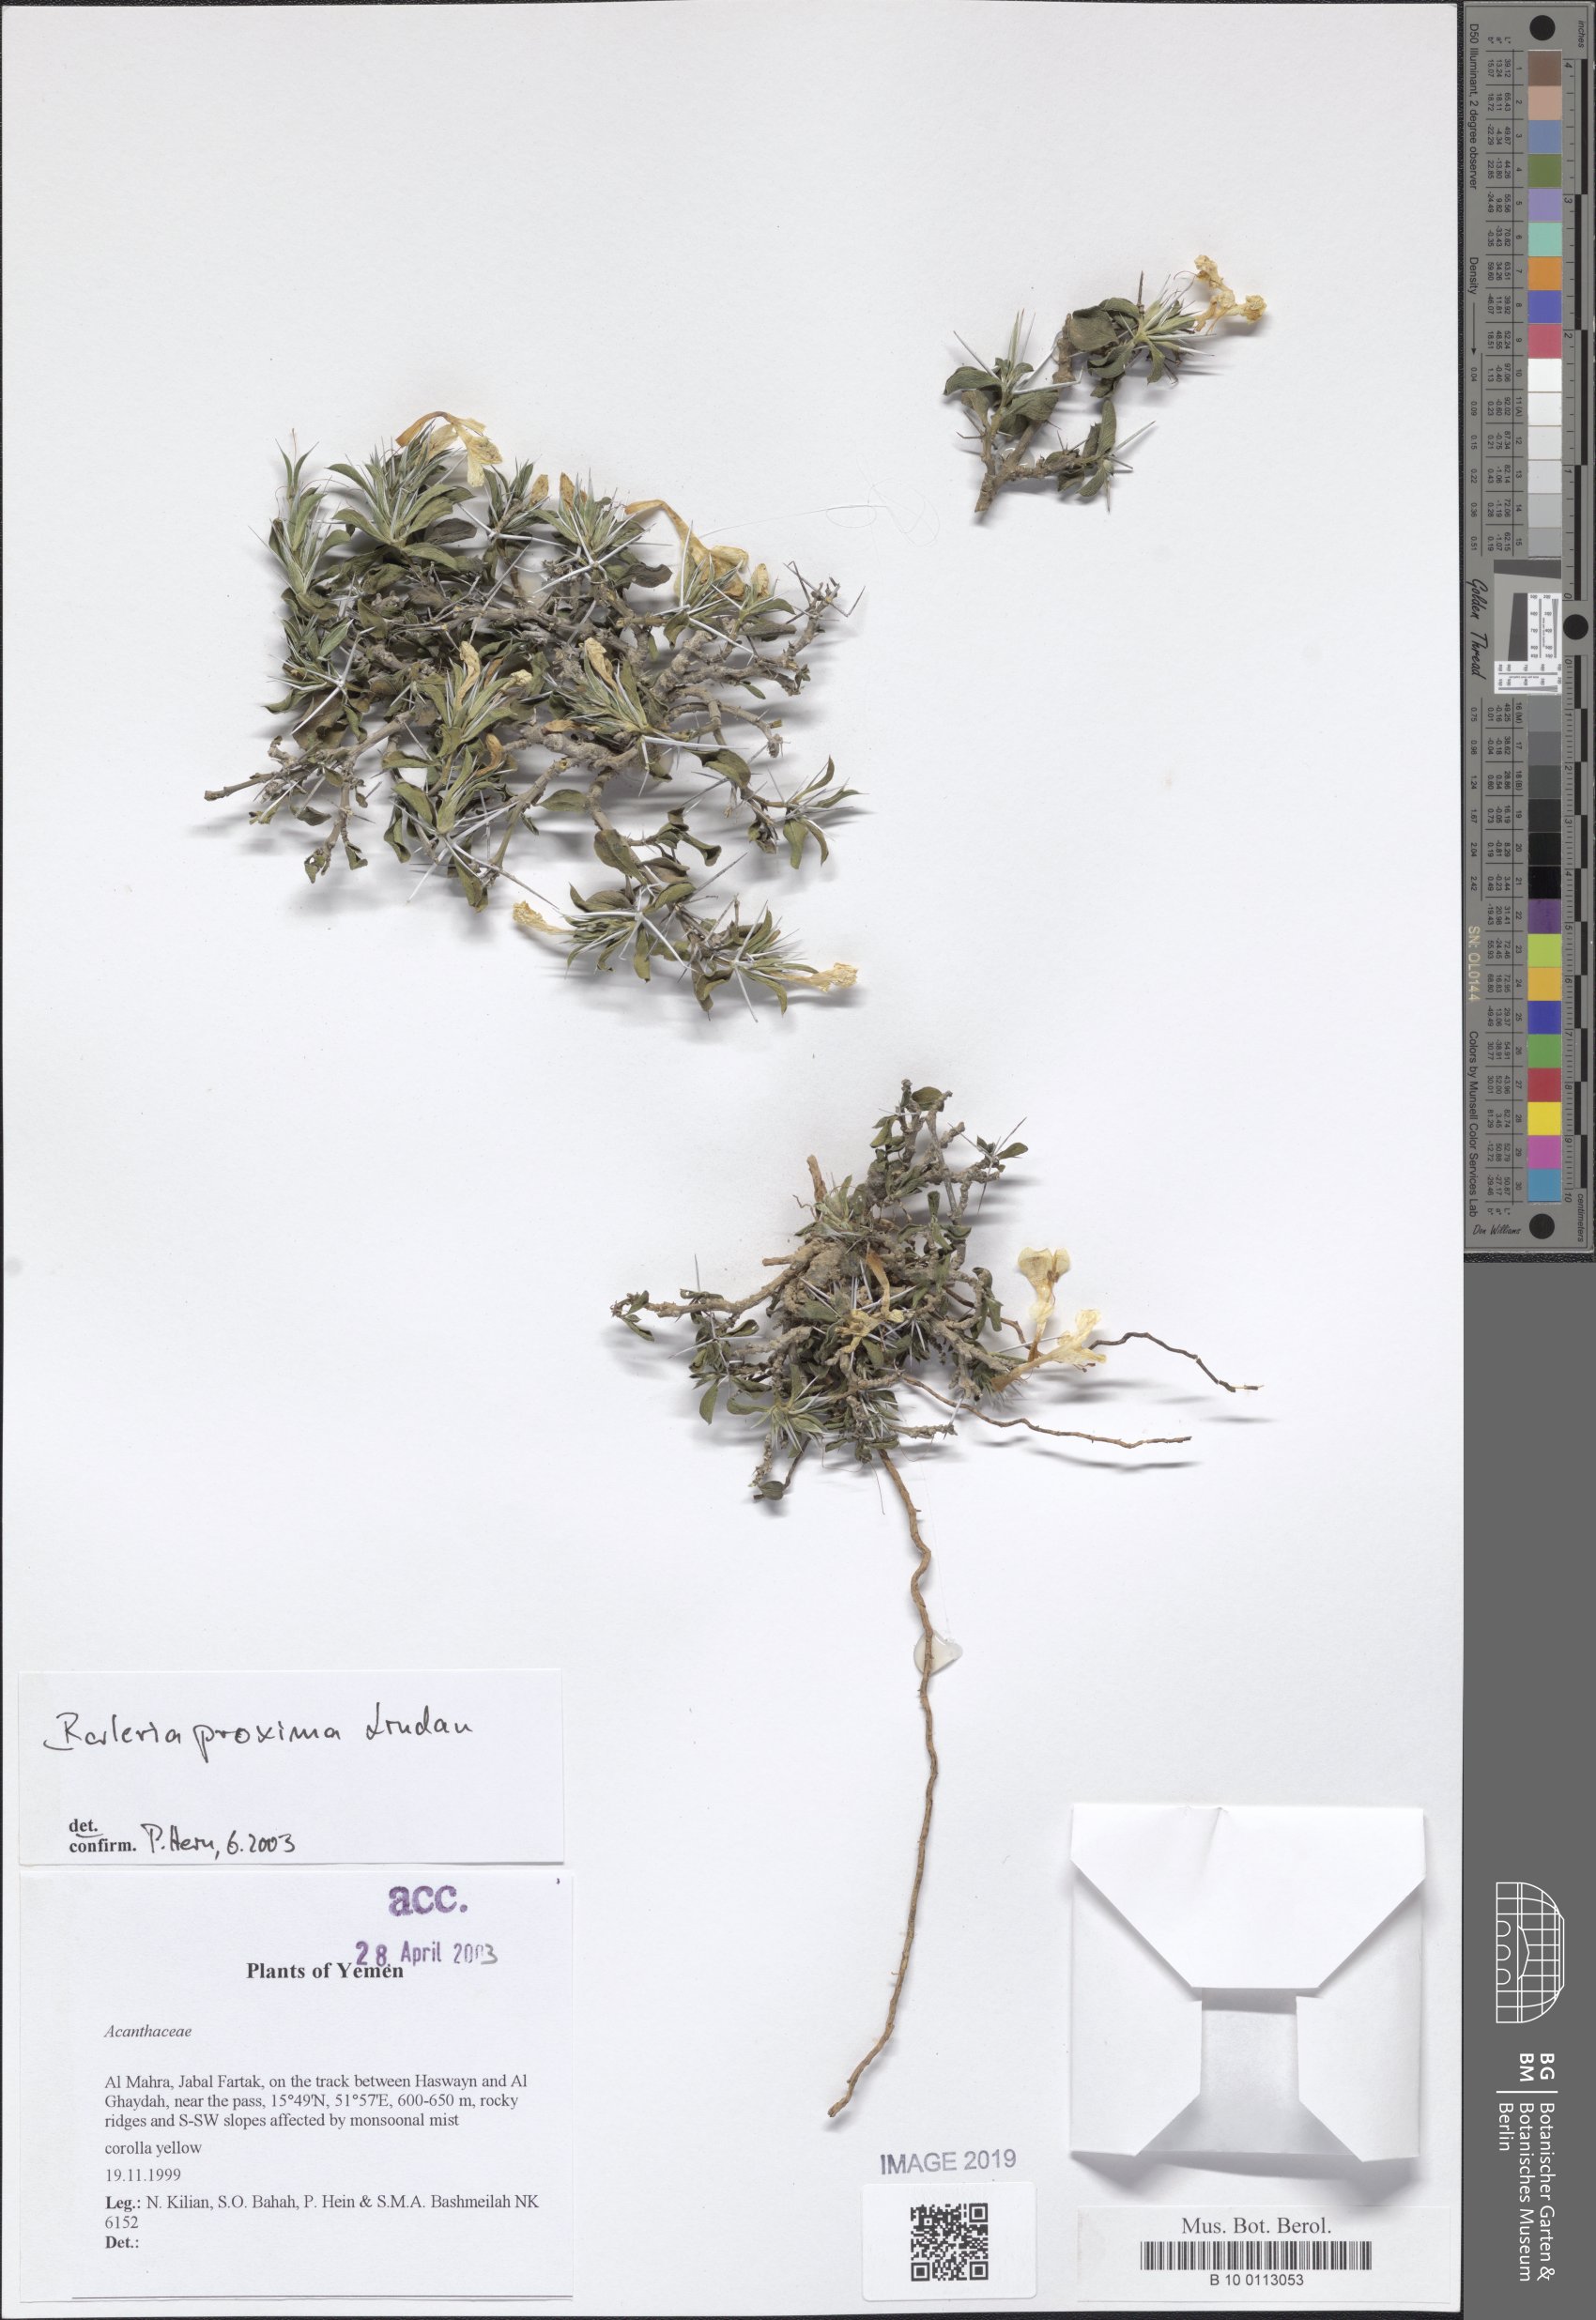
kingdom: Plantae
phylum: Tracheophyta
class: Magnoliopsida
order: Lamiales
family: Acanthaceae
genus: Barleria
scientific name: Barleria proxima
